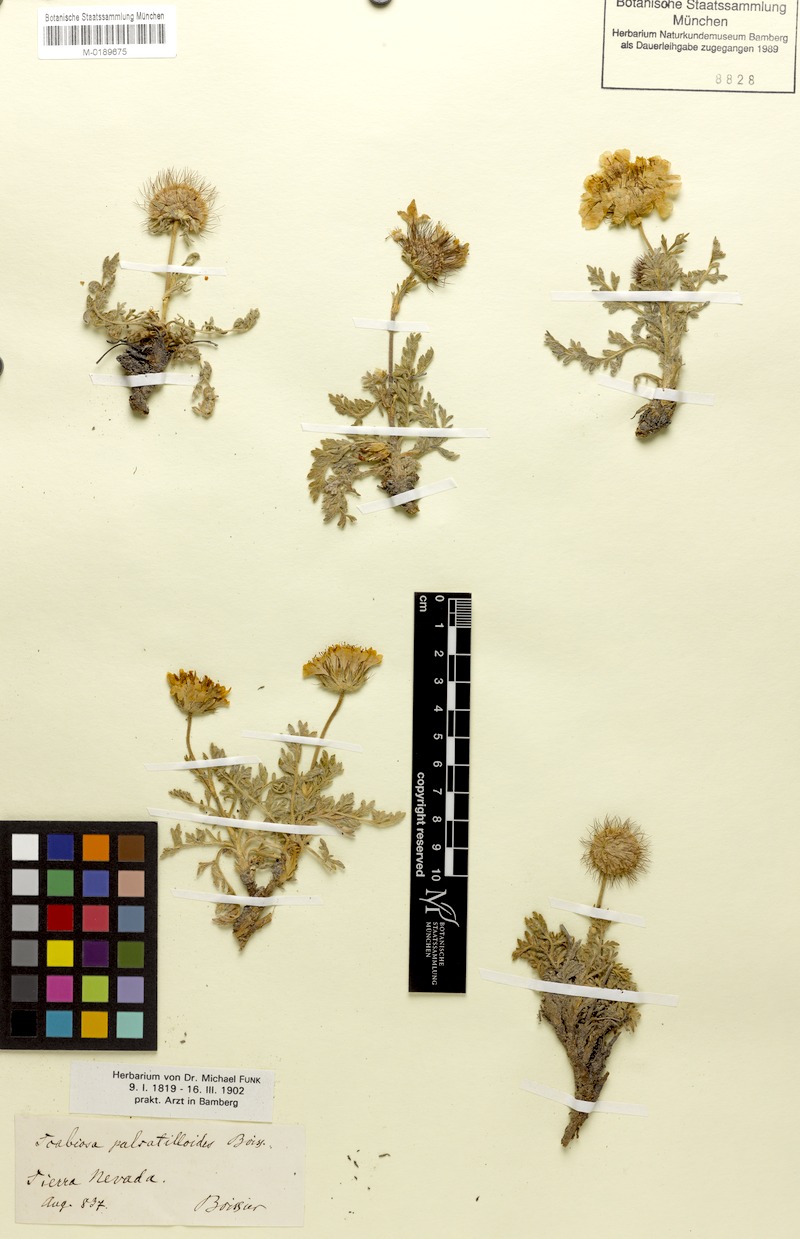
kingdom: Plantae
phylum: Tracheophyta
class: Magnoliopsida
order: Dipsacales
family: Caprifoliaceae
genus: Lomelosia
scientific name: Lomelosia pulsatilloides
